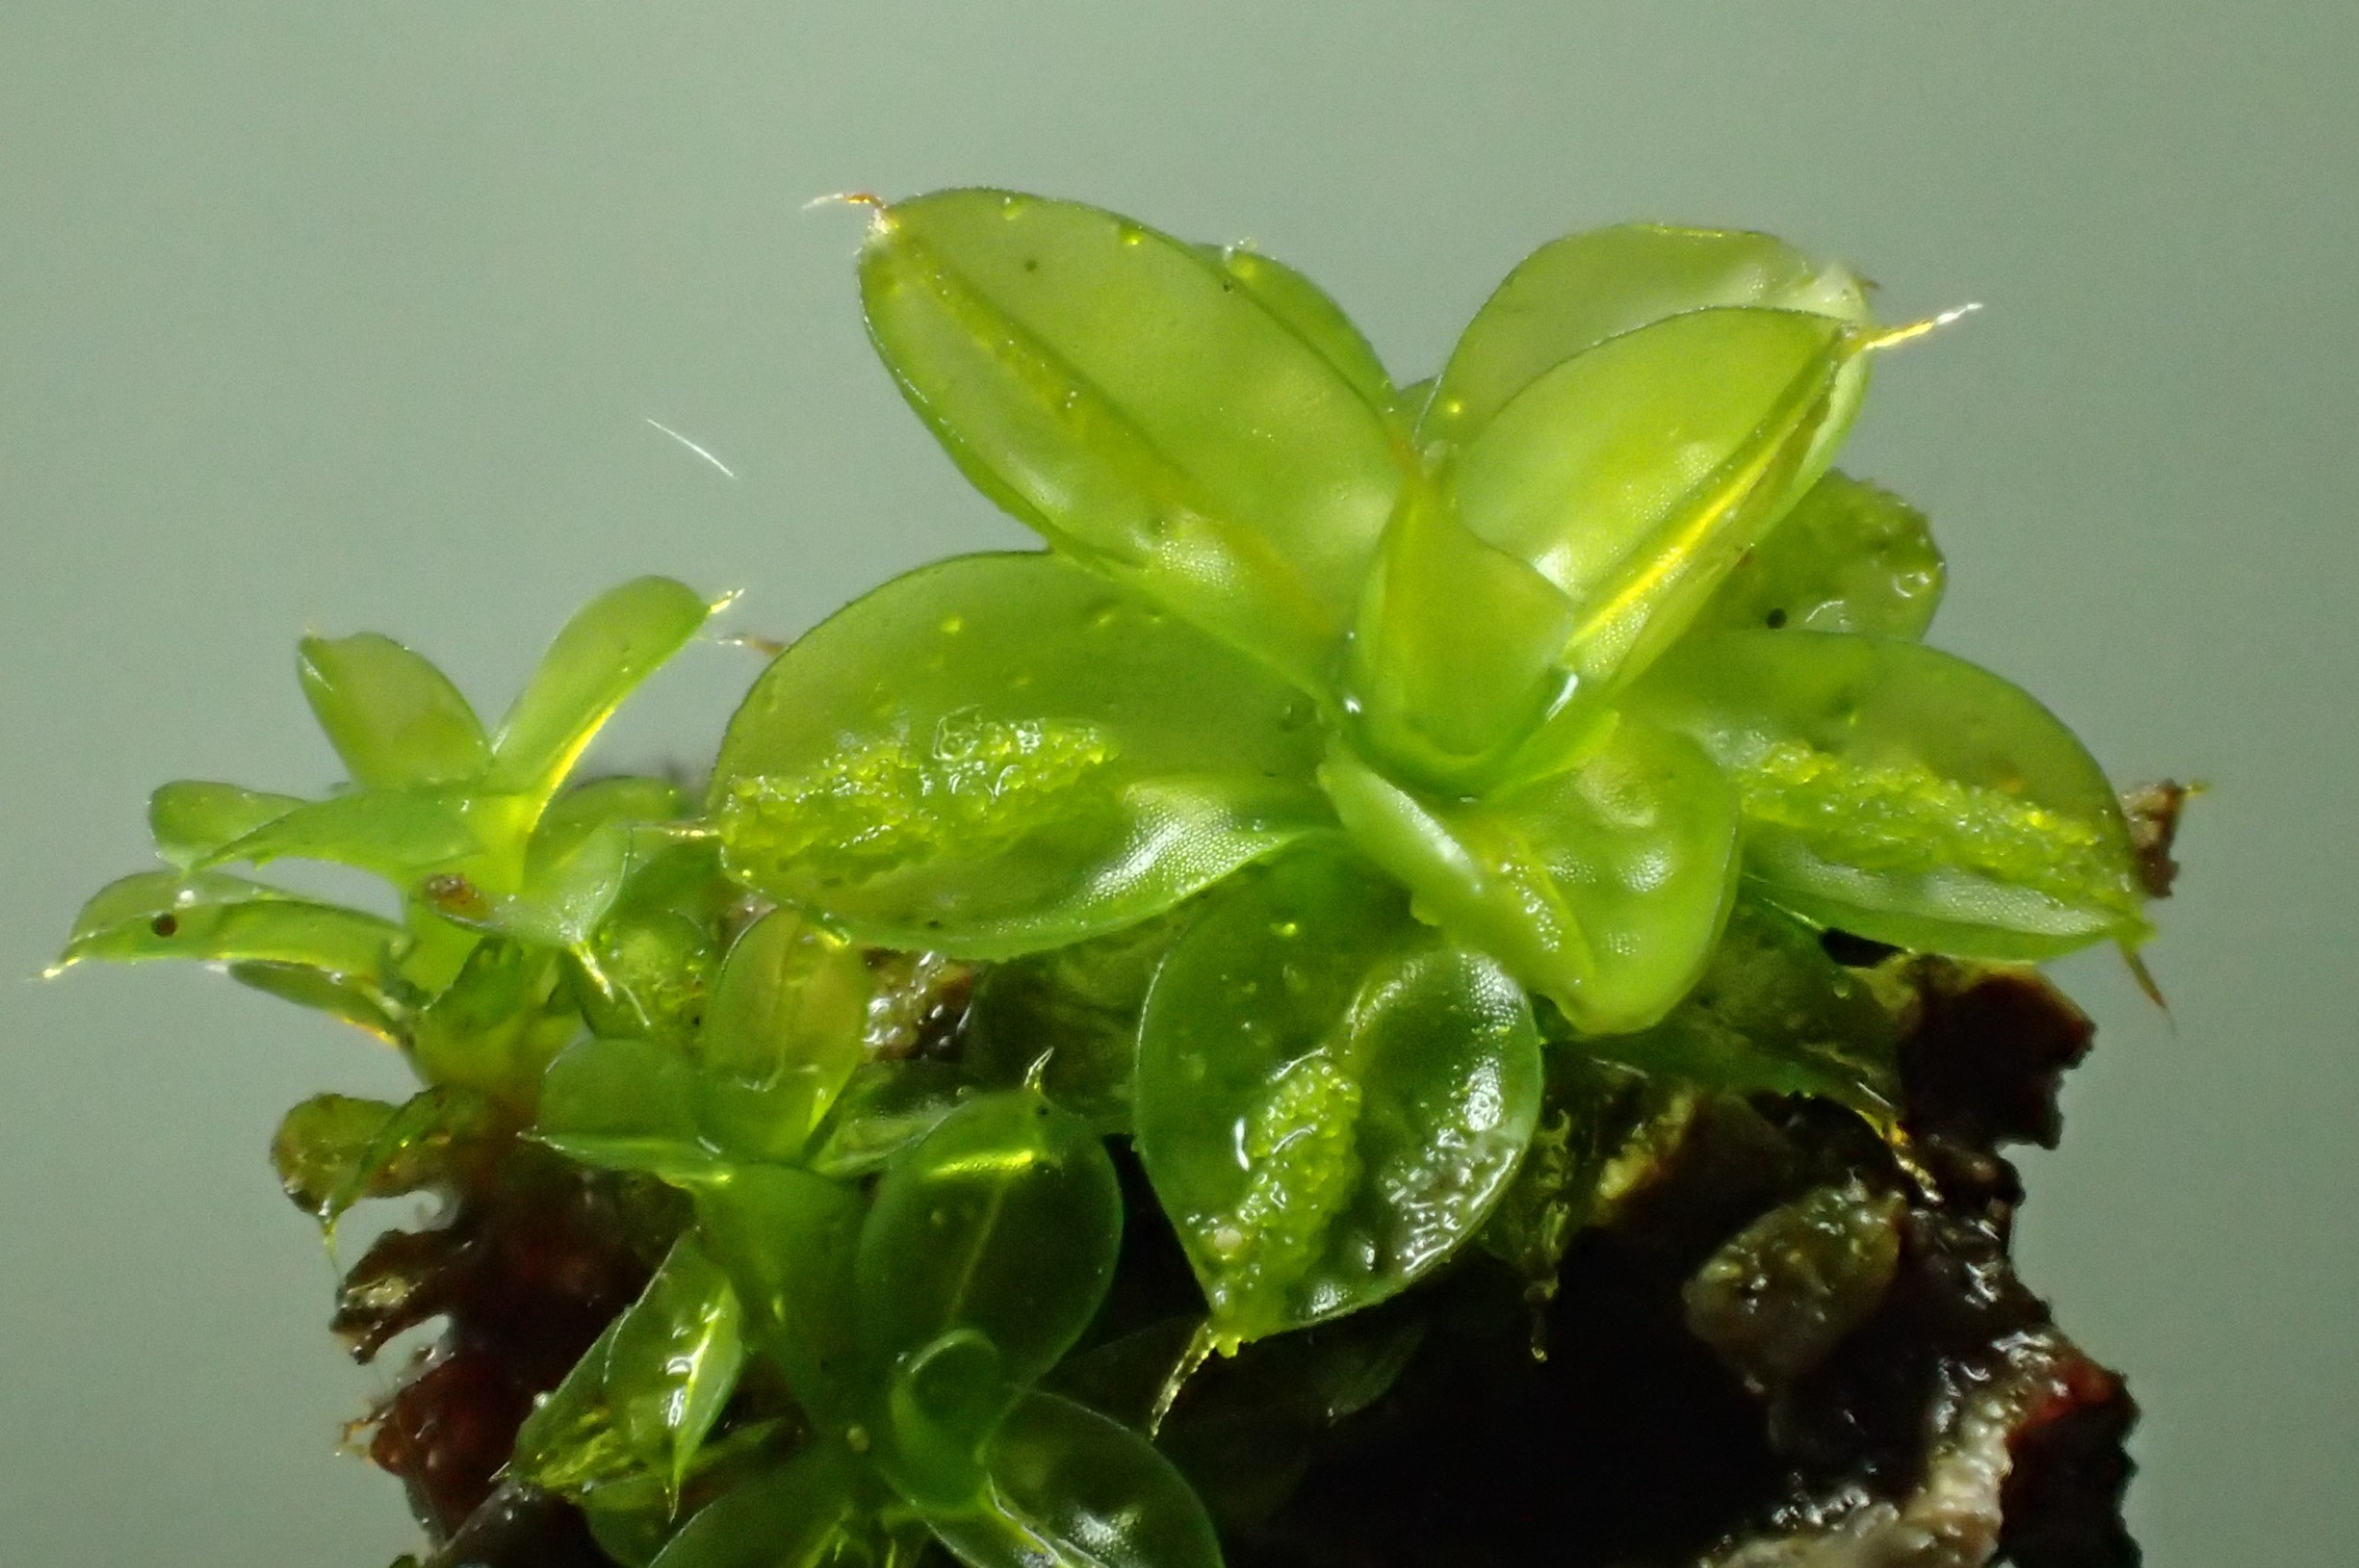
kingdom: Plantae
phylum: Bryophyta
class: Bryopsida
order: Pottiales
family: Pottiaceae
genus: Syntrichia
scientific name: Syntrichia papillosa
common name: Bark-hårstjerne
